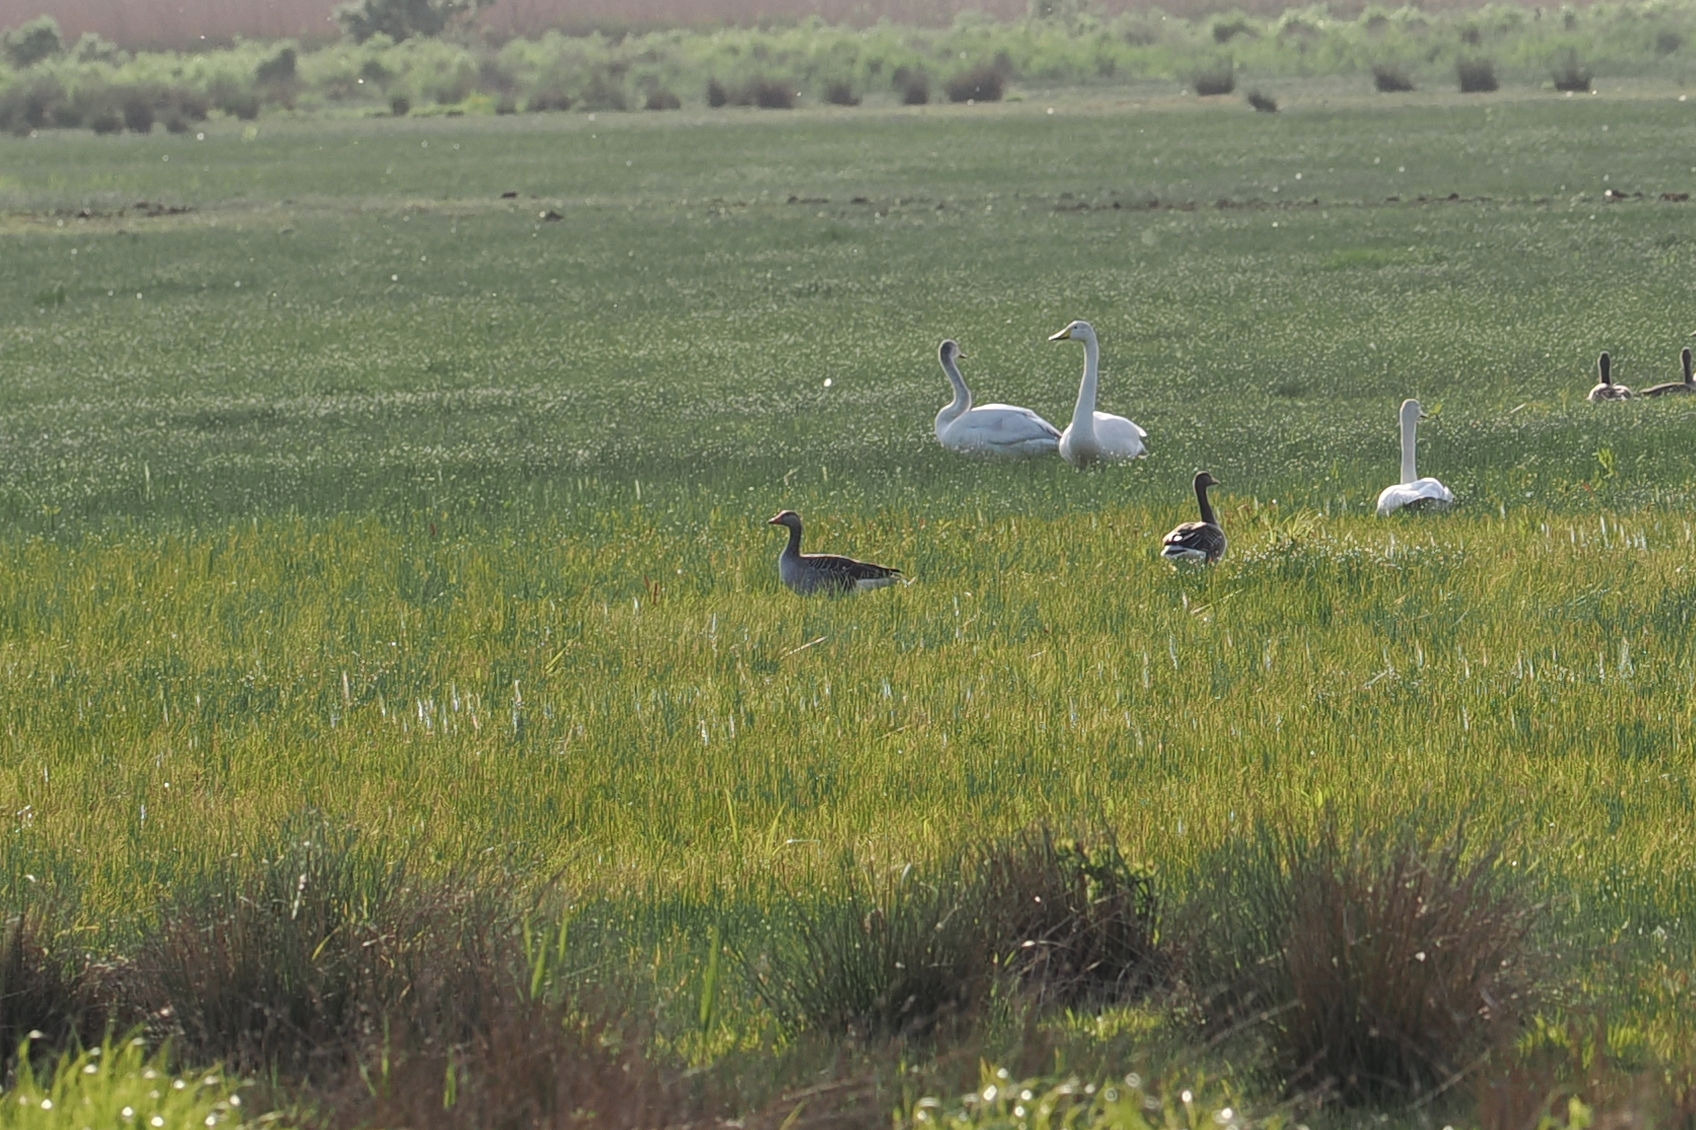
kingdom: Animalia
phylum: Chordata
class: Aves
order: Anseriformes
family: Anatidae
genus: Cygnus
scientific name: Cygnus cygnus
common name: Sangsvane
